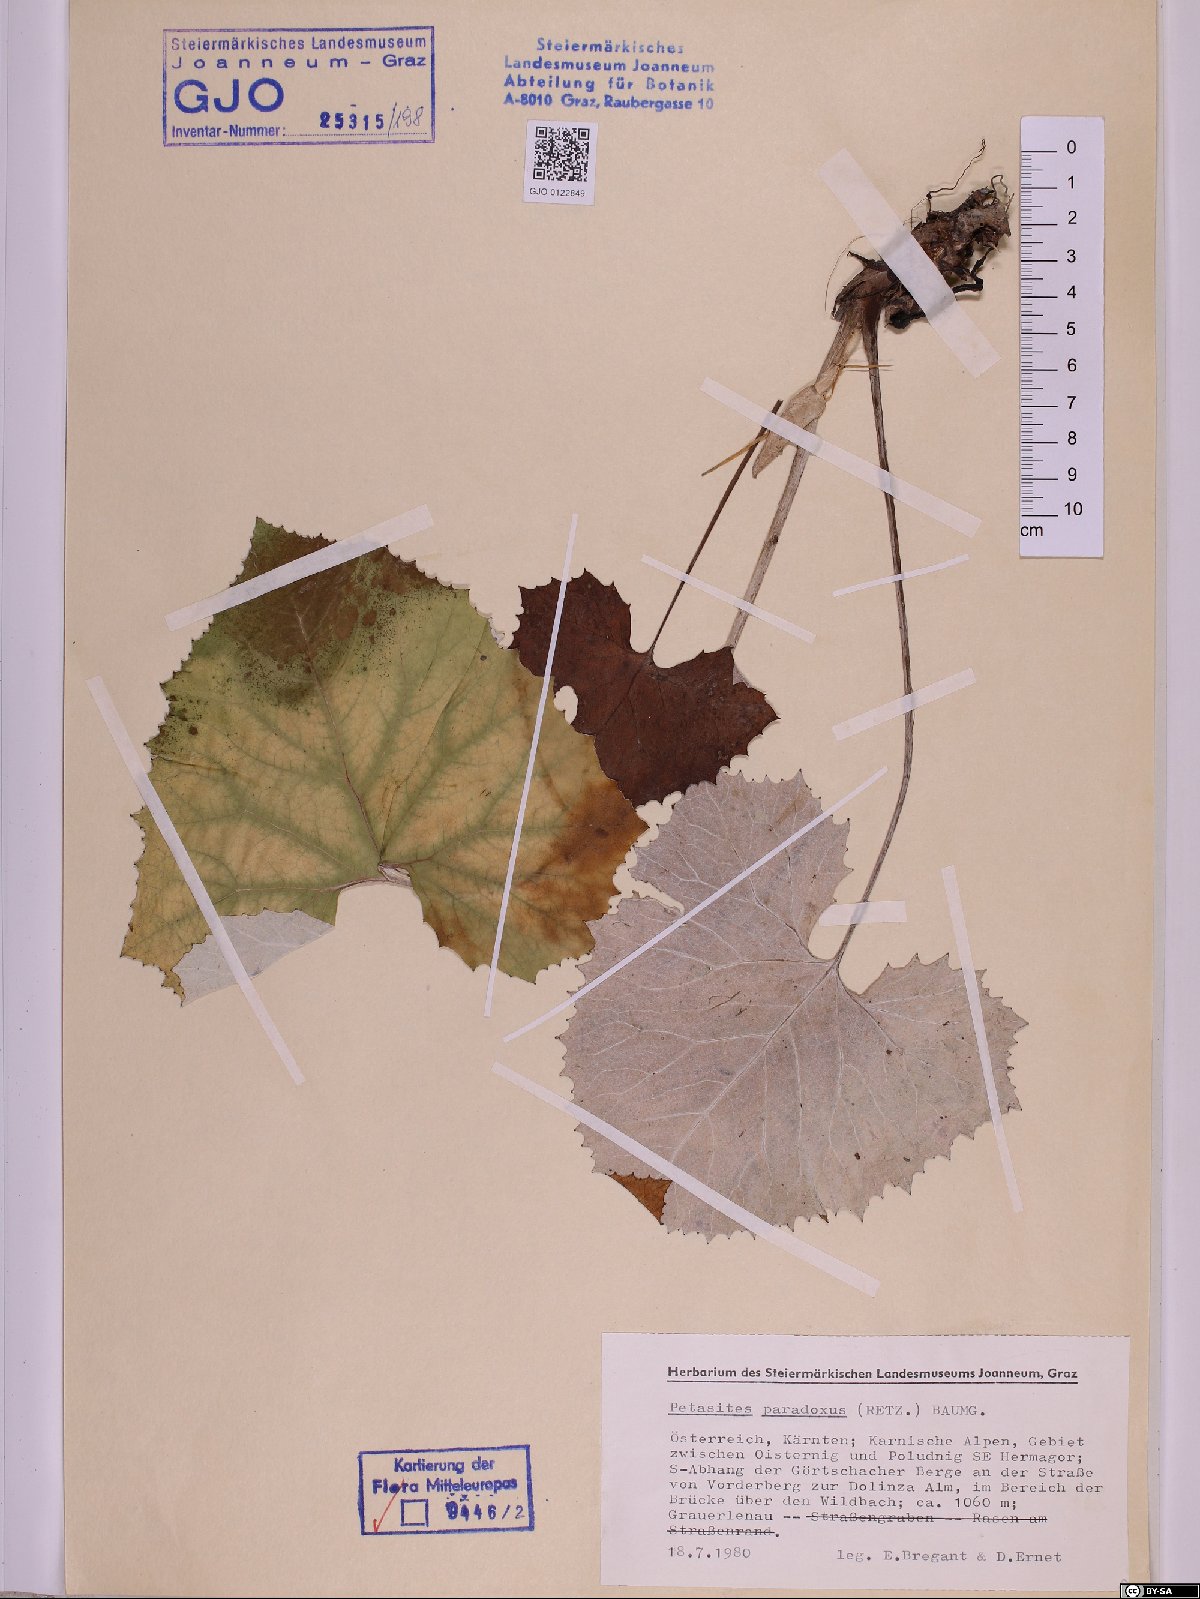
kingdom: Plantae
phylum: Tracheophyta
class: Magnoliopsida
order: Asterales
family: Asteraceae
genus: Petasites
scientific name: Petasites paradoxus
